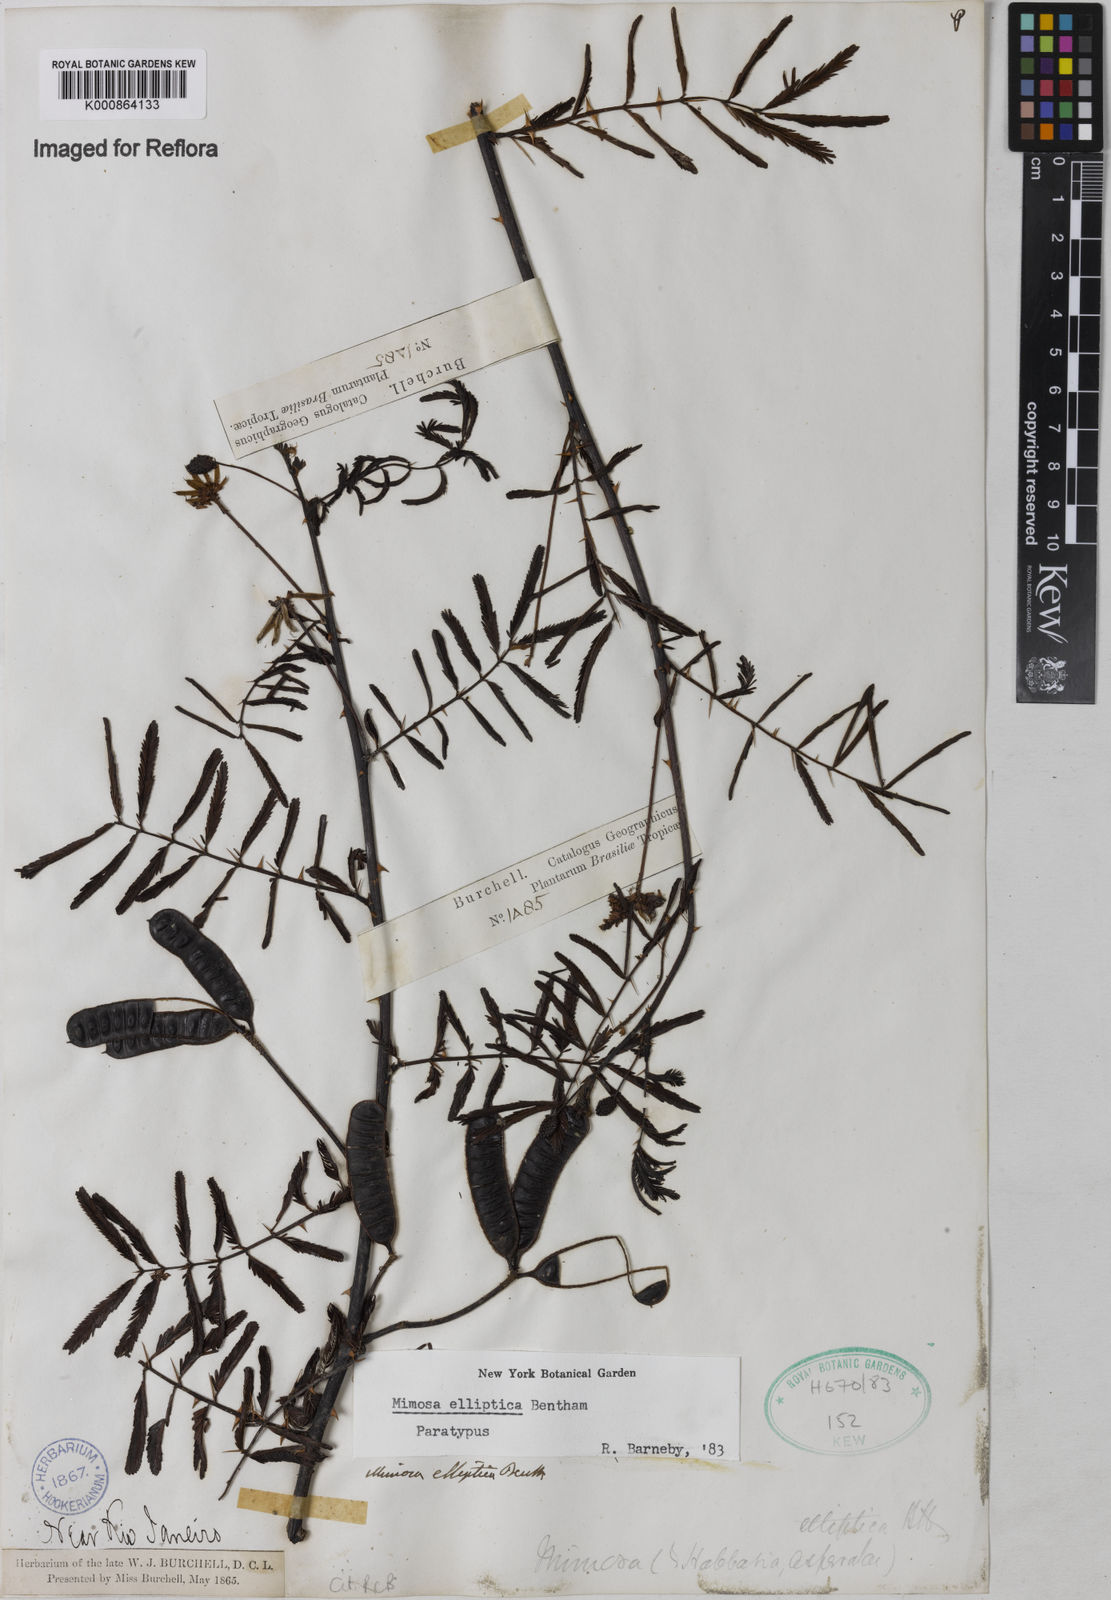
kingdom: Plantae
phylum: Tracheophyta
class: Magnoliopsida
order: Fabales
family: Fabaceae
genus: Mimosa
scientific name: Mimosa elliptica
